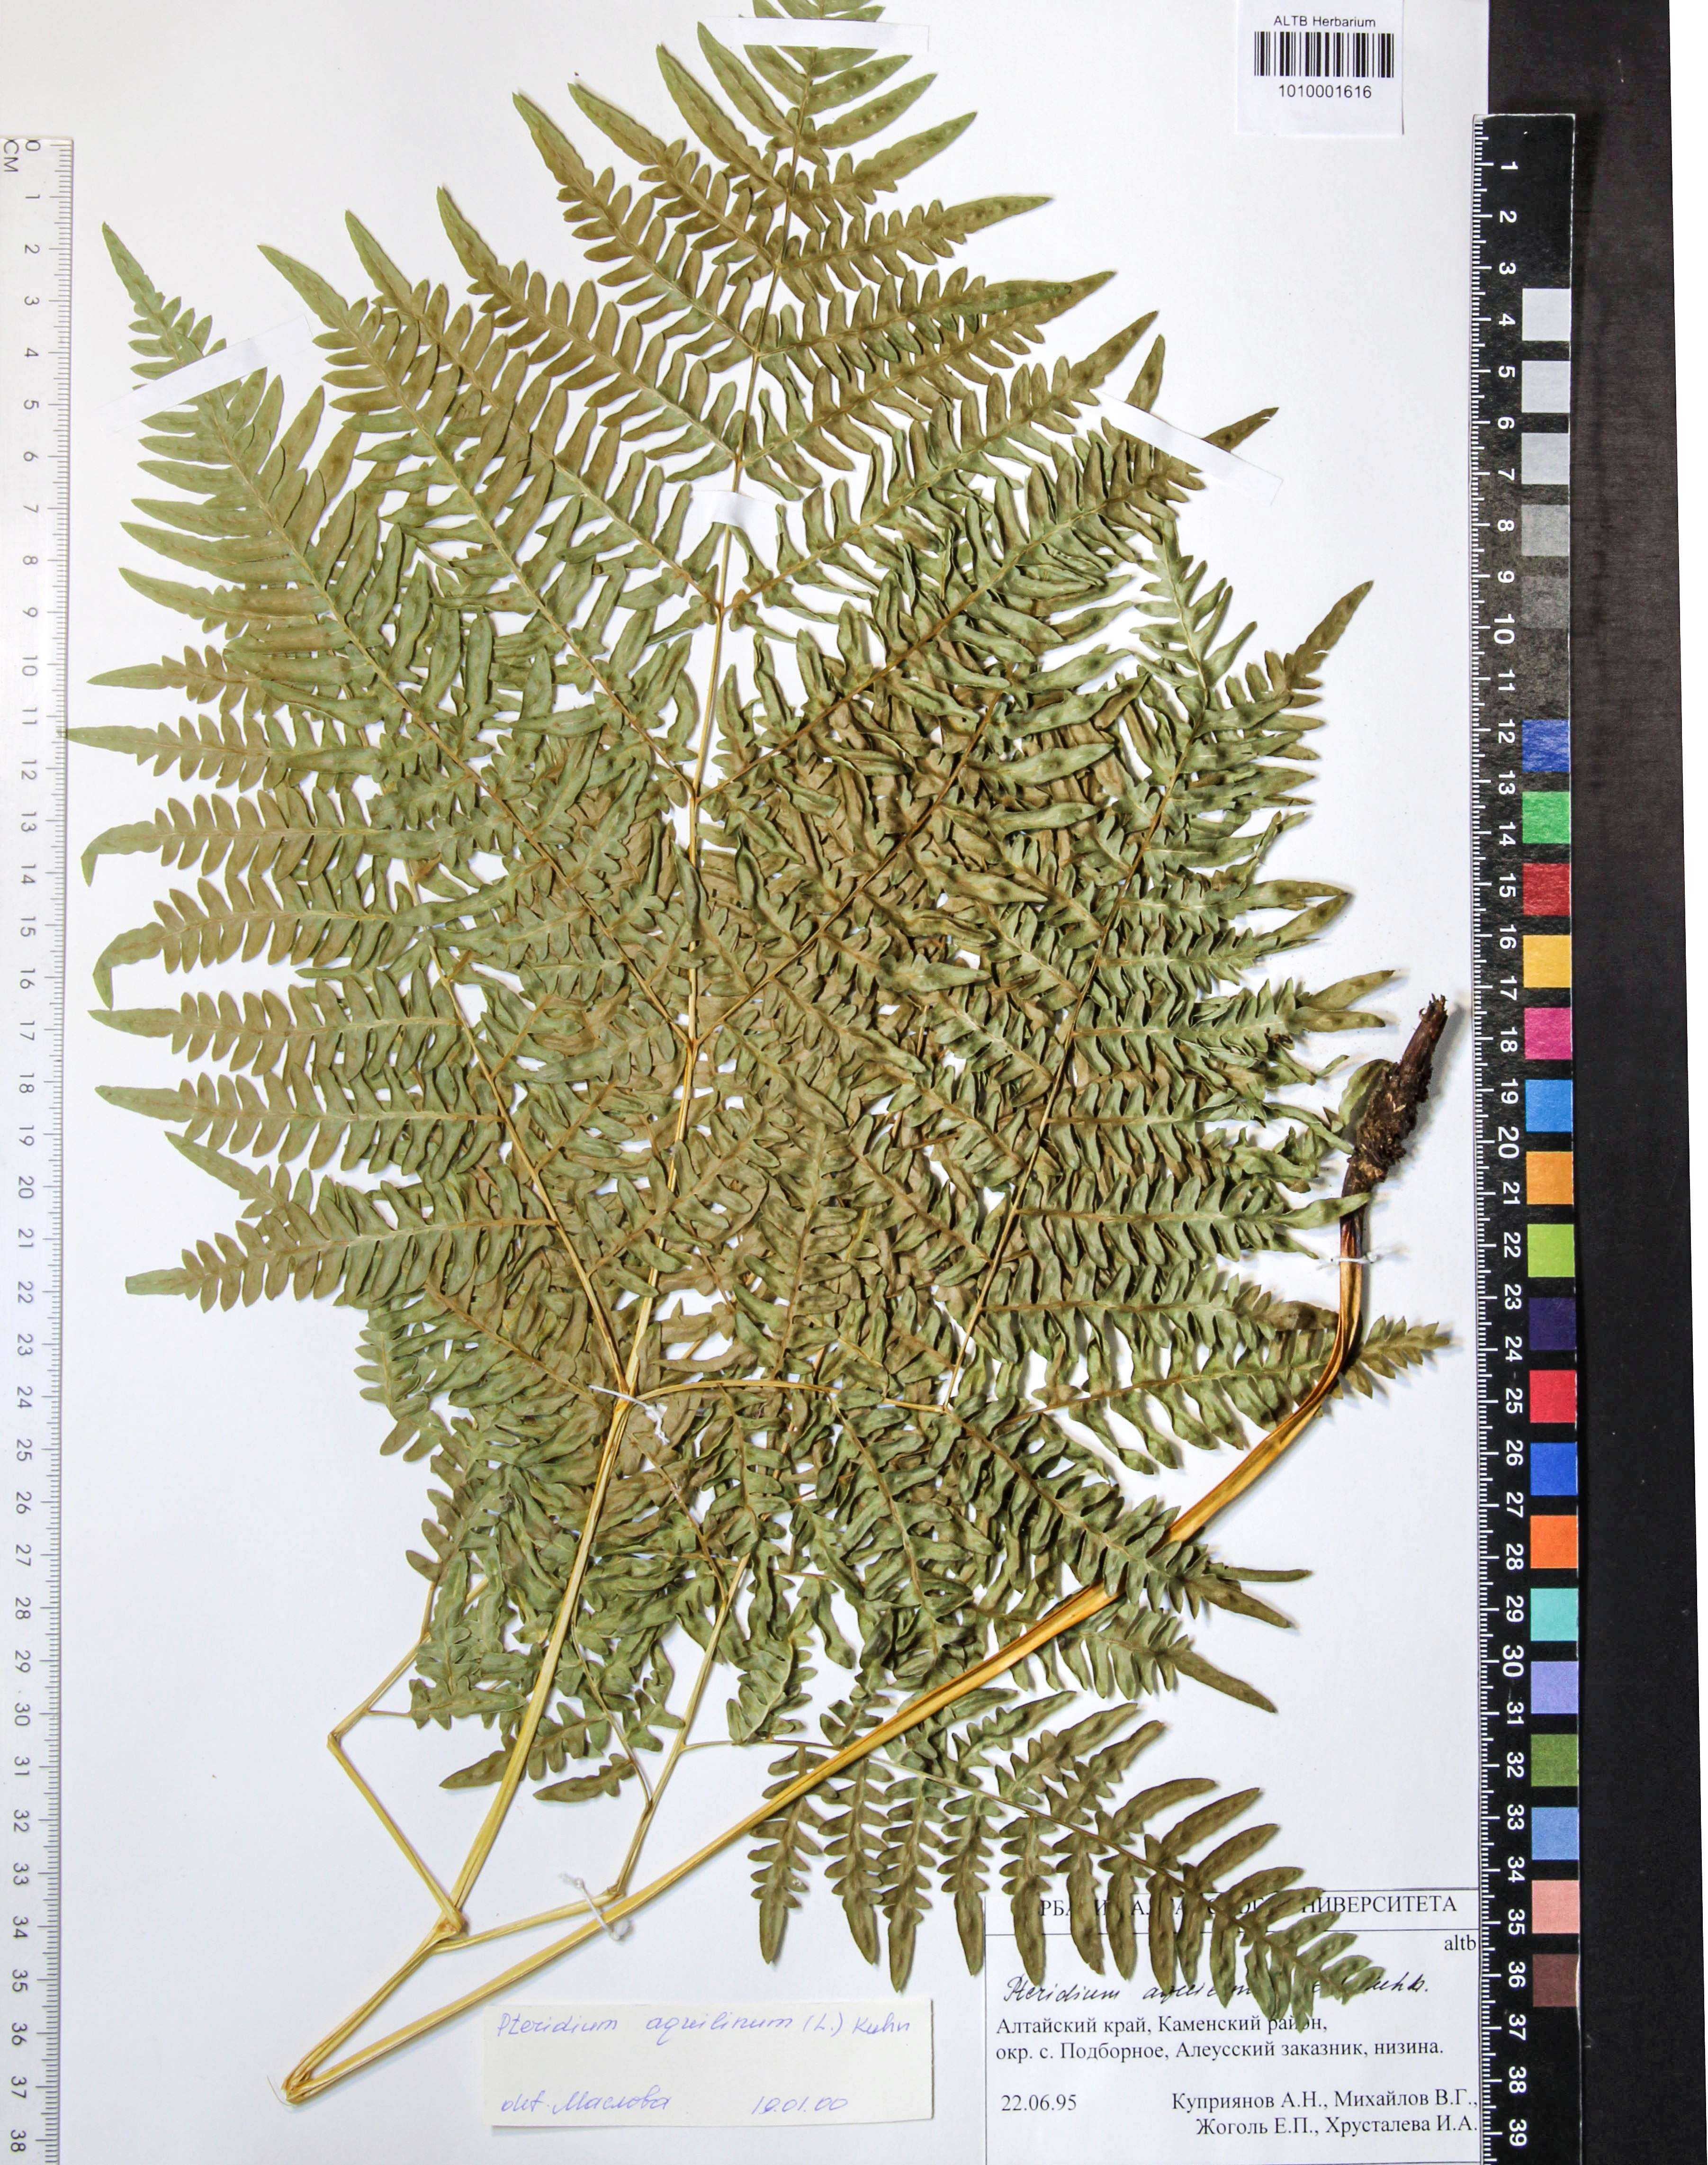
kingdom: Plantae
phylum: Tracheophyta
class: Polypodiopsida
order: Polypodiales
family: Dennstaedtiaceae
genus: Pteridium
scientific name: Pteridium aquilinum
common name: Bracken
